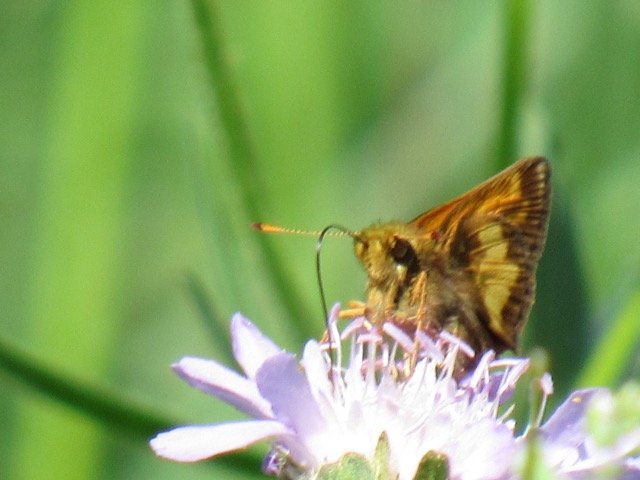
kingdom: Animalia
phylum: Arthropoda
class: Insecta
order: Lepidoptera
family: Hesperiidae
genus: Lon
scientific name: Lon hobomok
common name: Hobomok Skipper
